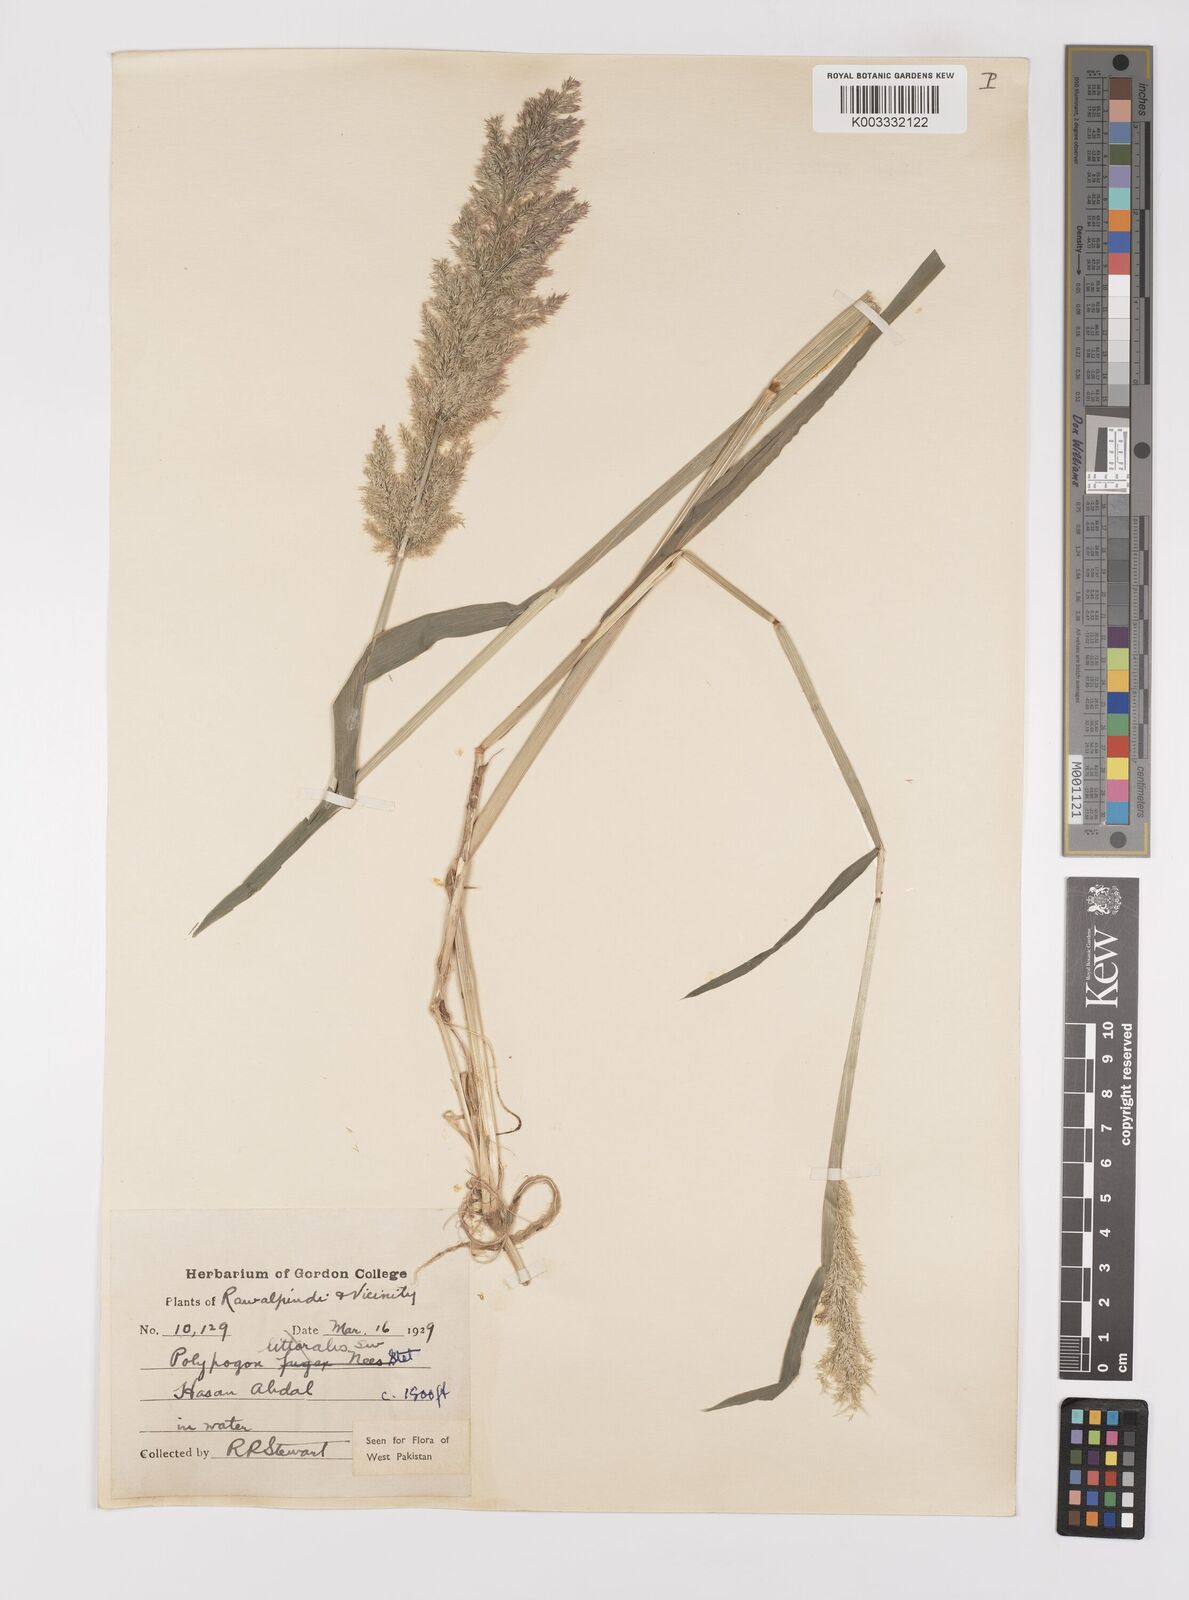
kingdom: Plantae
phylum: Tracheophyta
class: Liliopsida
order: Poales
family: Poaceae
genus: Polypogon
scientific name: Polypogon fugax
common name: Asia minor bluegrass
